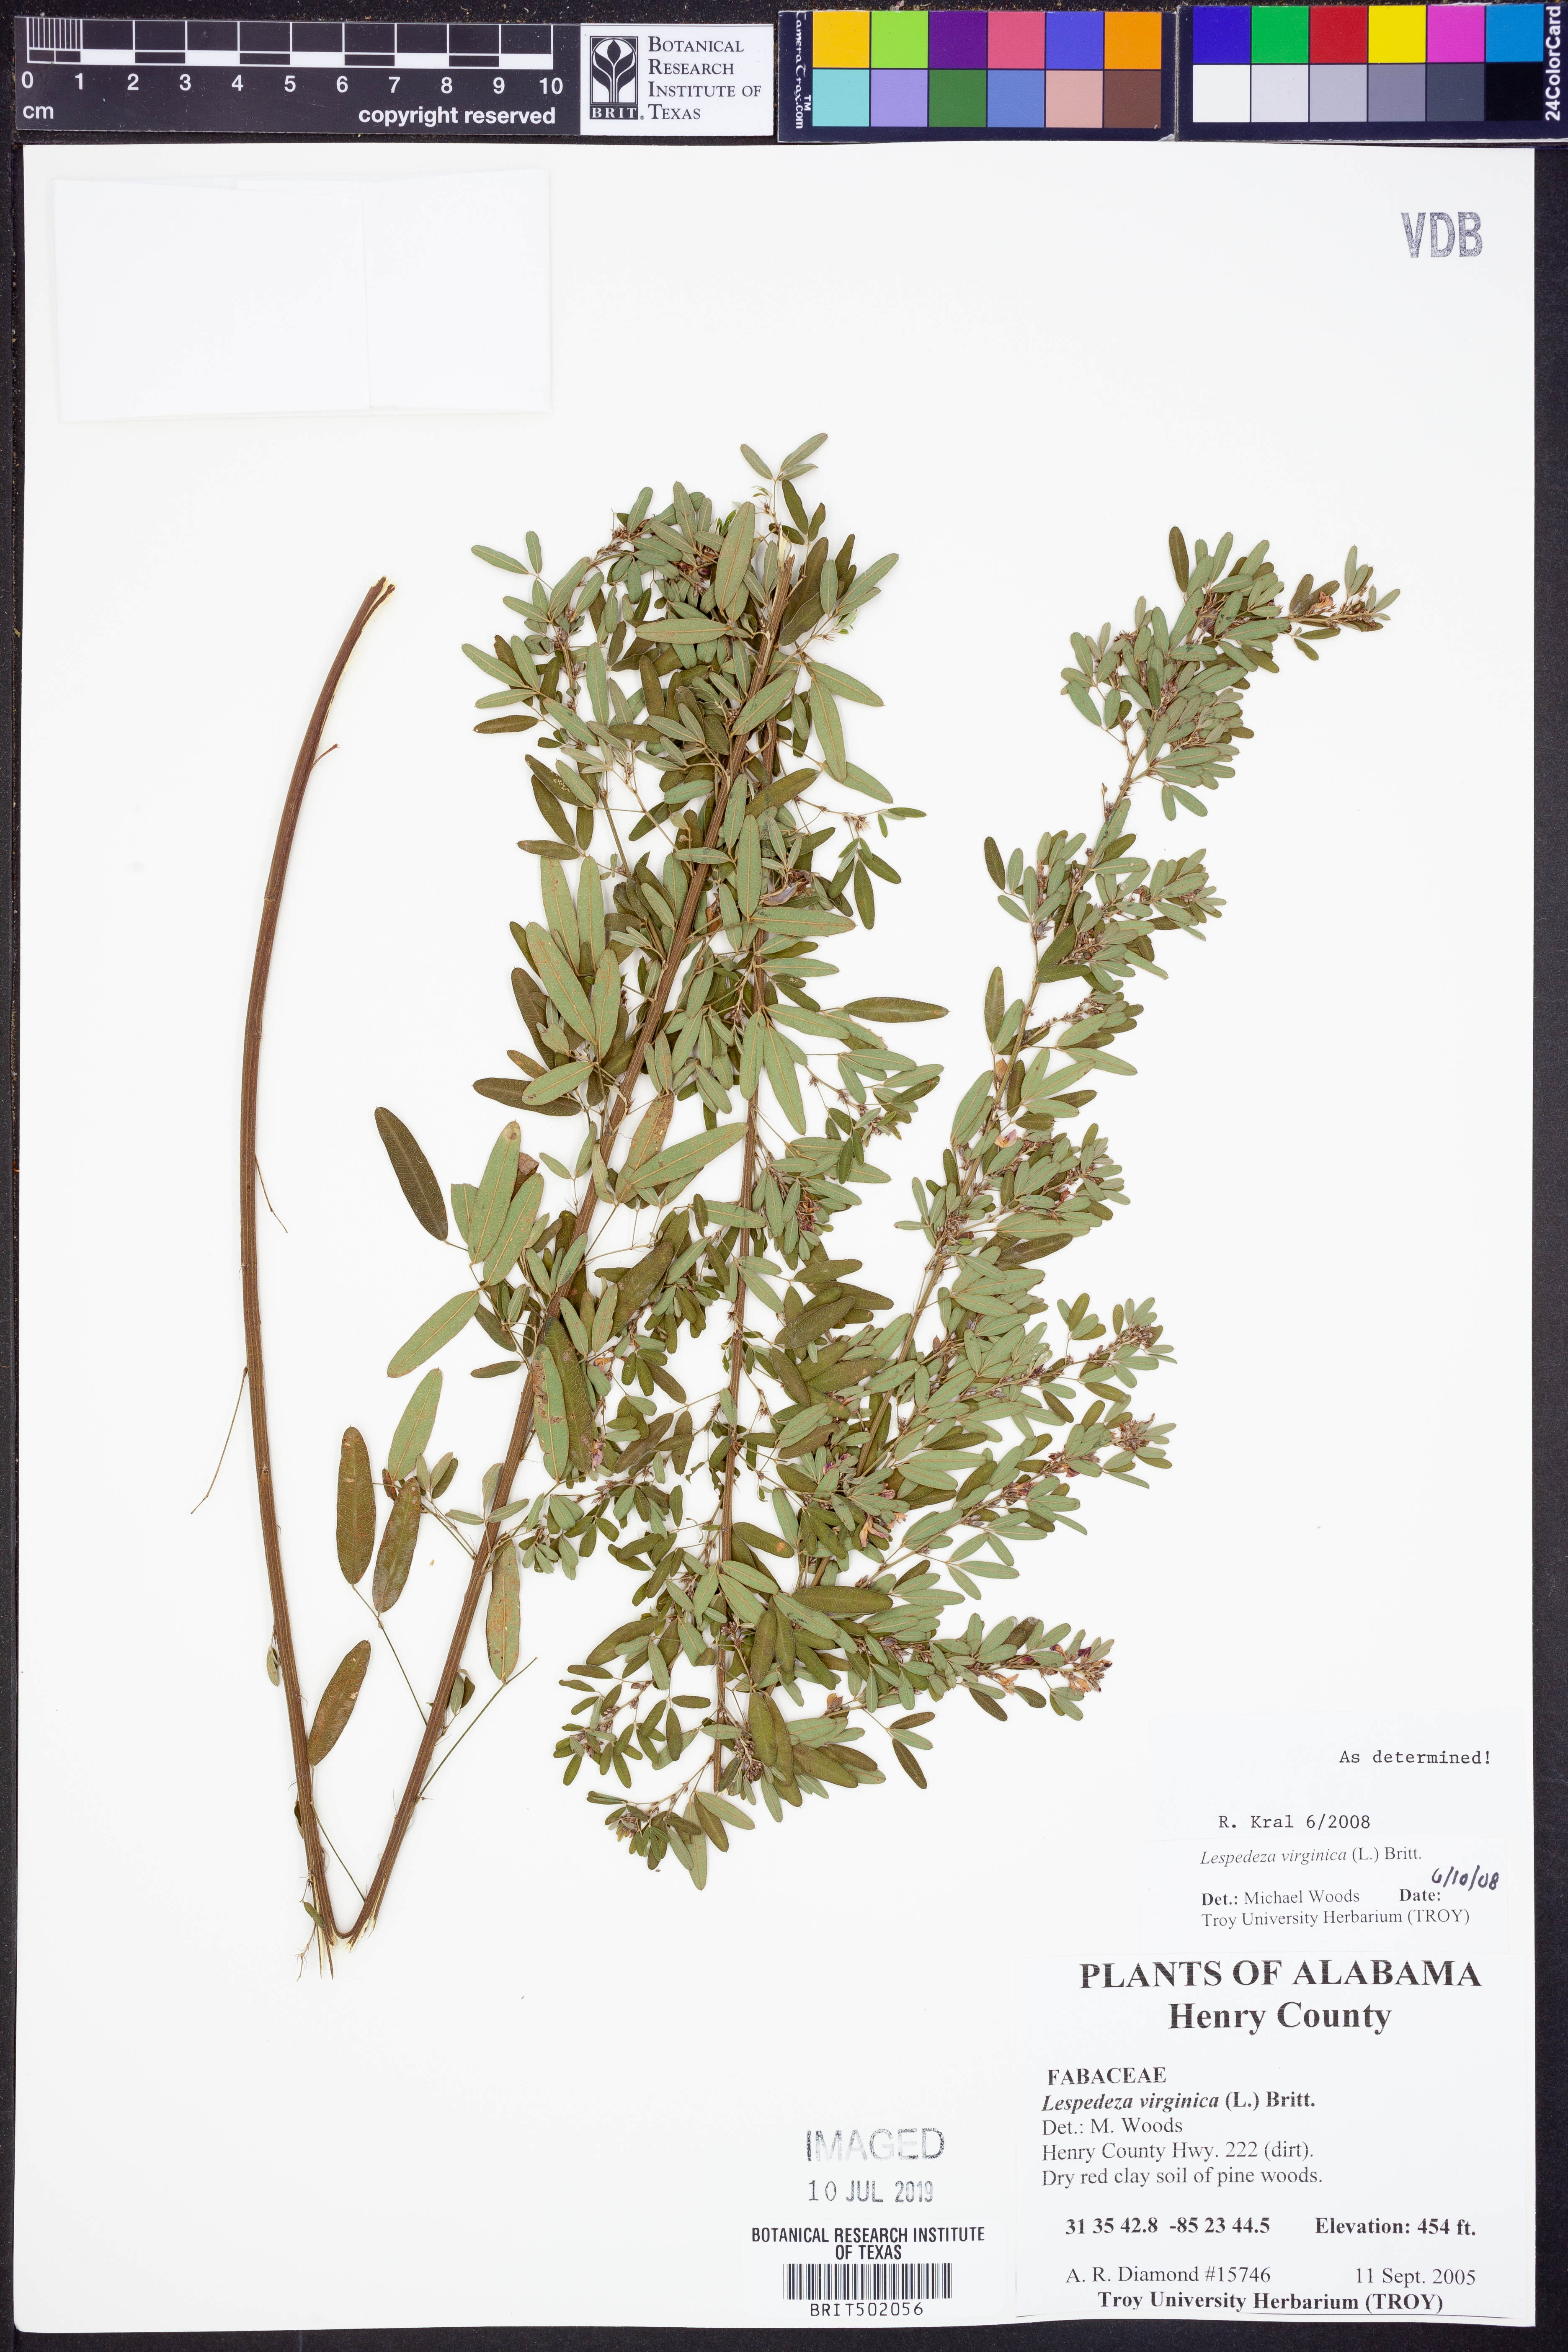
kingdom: Plantae
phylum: Tracheophyta
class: Magnoliopsida
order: Fabales
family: Fabaceae
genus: Lespedeza
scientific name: Lespedeza virginica
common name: Slender bush-clover
